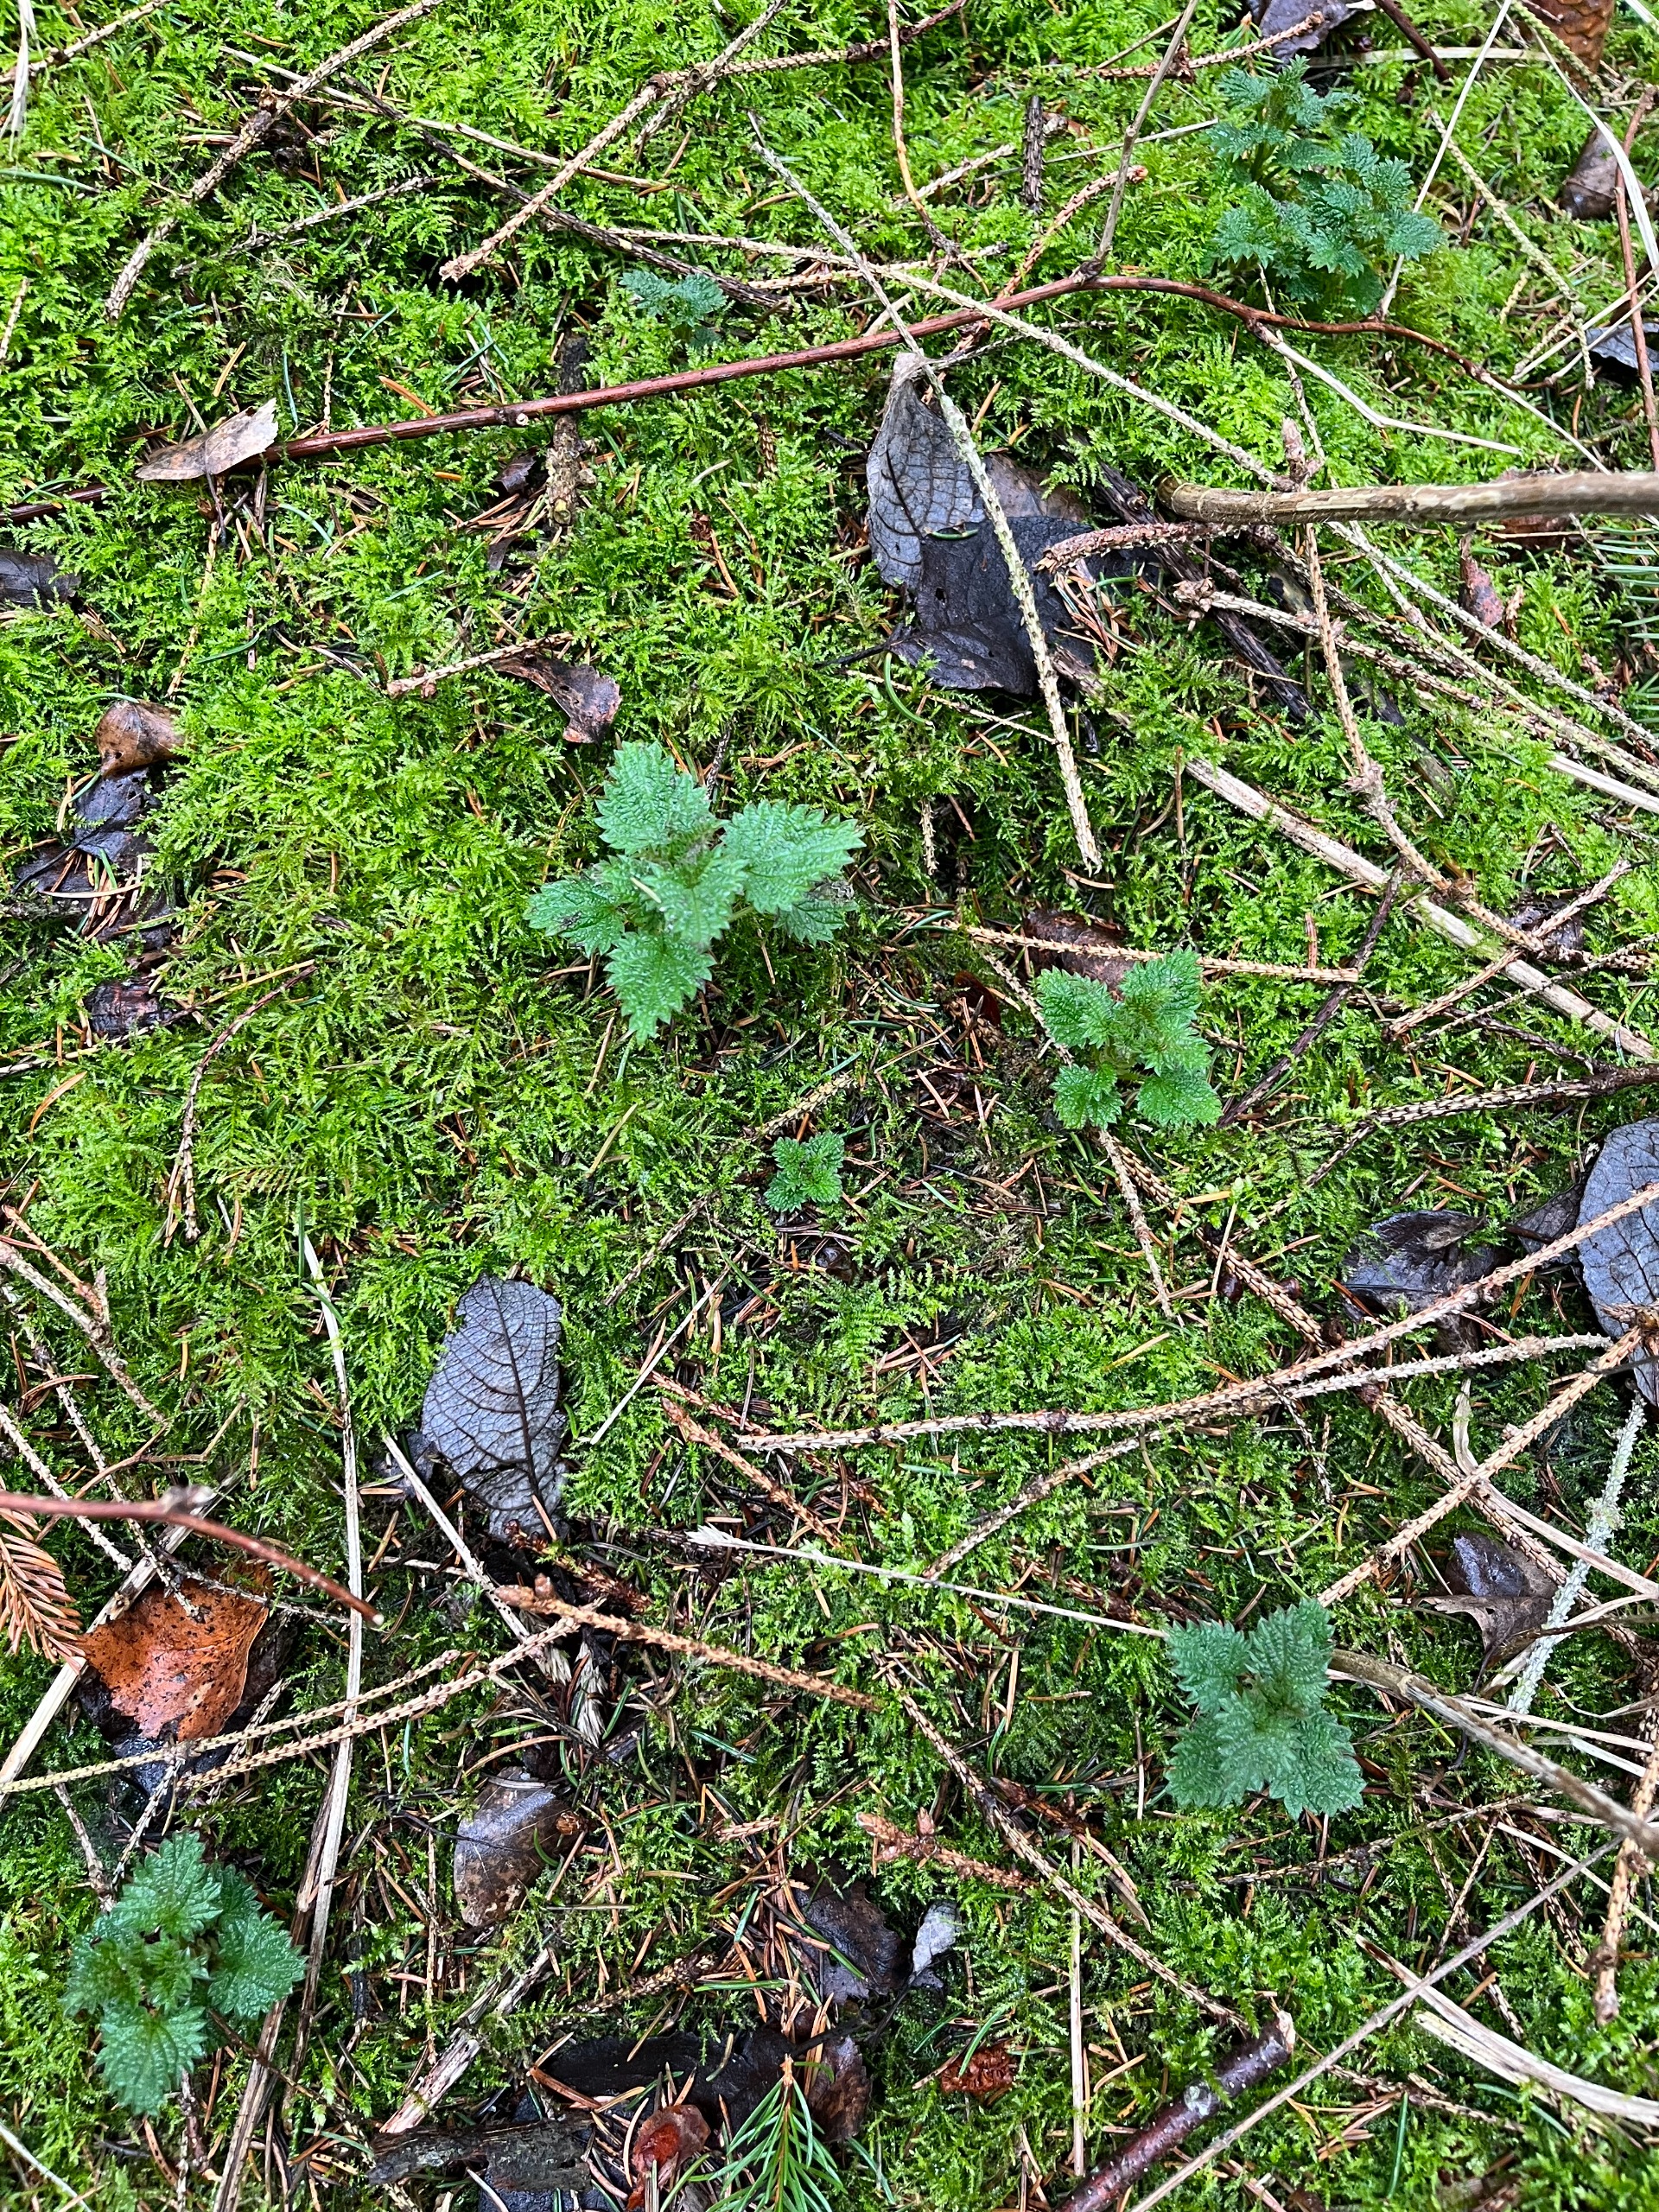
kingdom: Plantae
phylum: Tracheophyta
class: Magnoliopsida
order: Rosales
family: Urticaceae
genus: Urtica
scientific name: Urtica dioica
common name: Stor nælde
